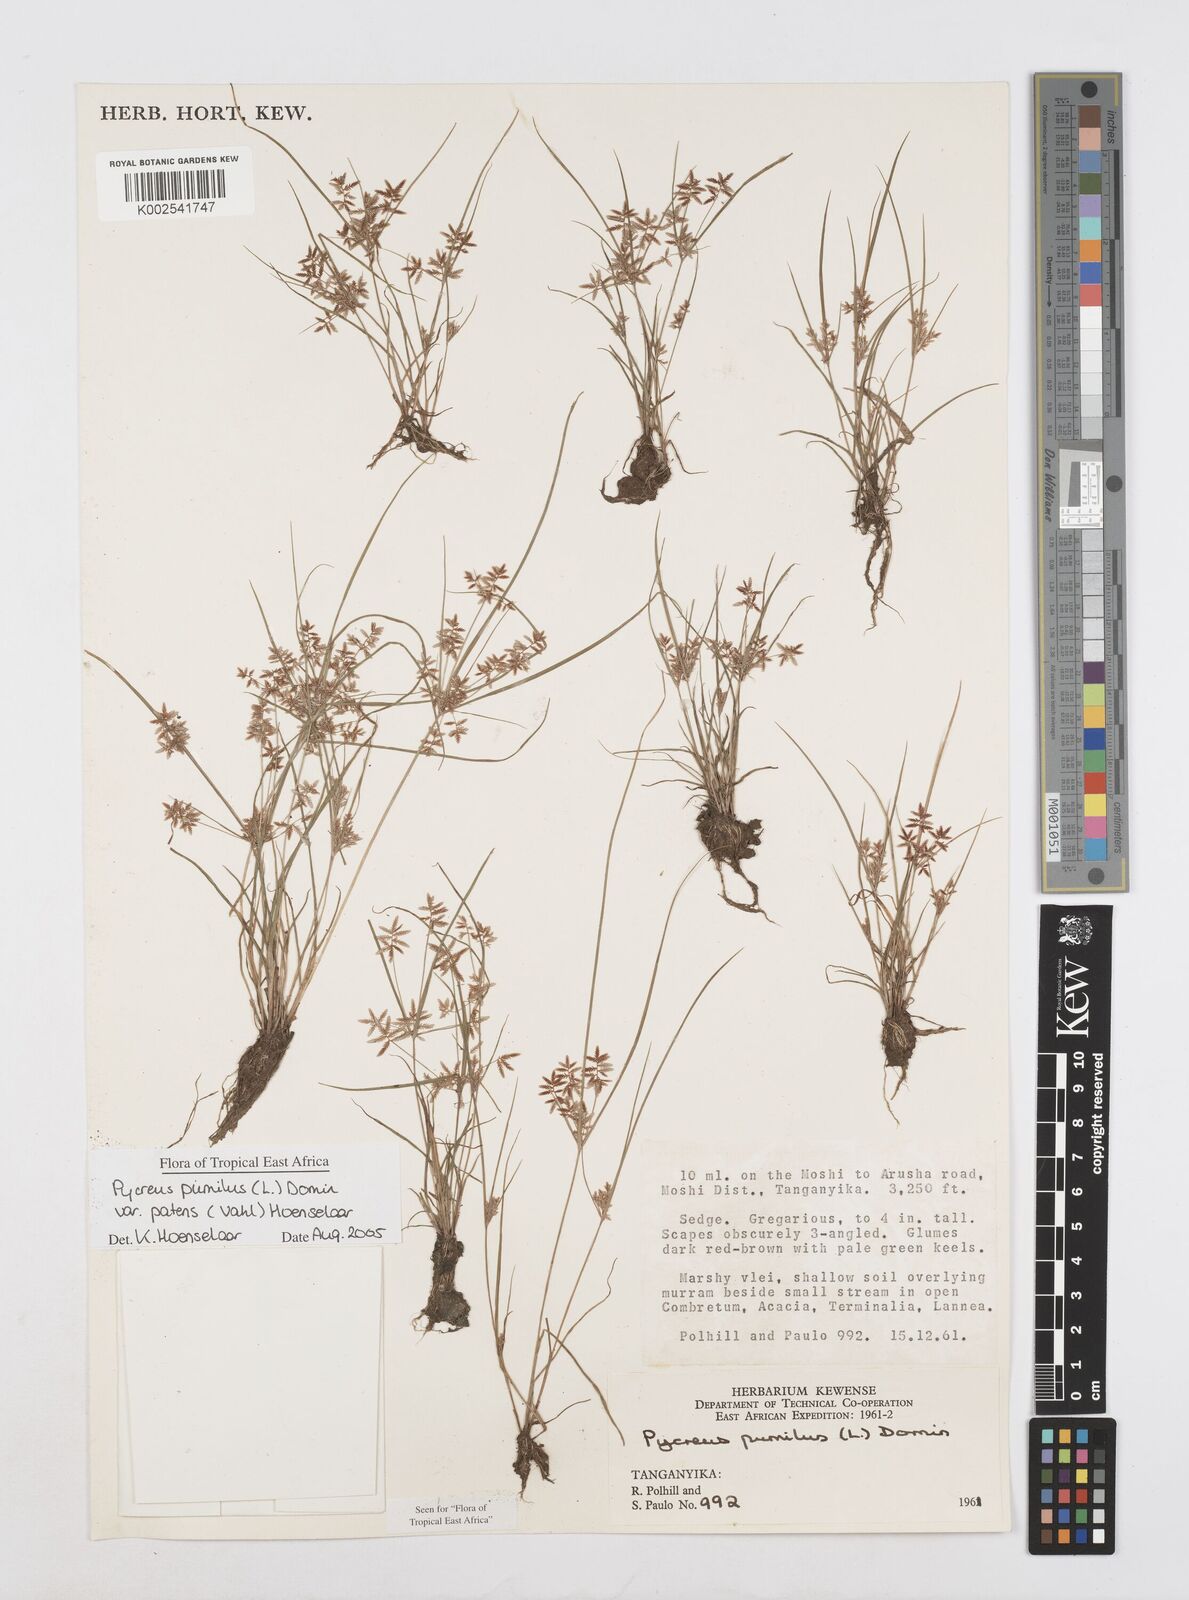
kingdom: Plantae
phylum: Tracheophyta
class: Liliopsida
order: Poales
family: Cyperaceae
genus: Cyperus
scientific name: Cyperus pumilus
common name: Low flatsedge
